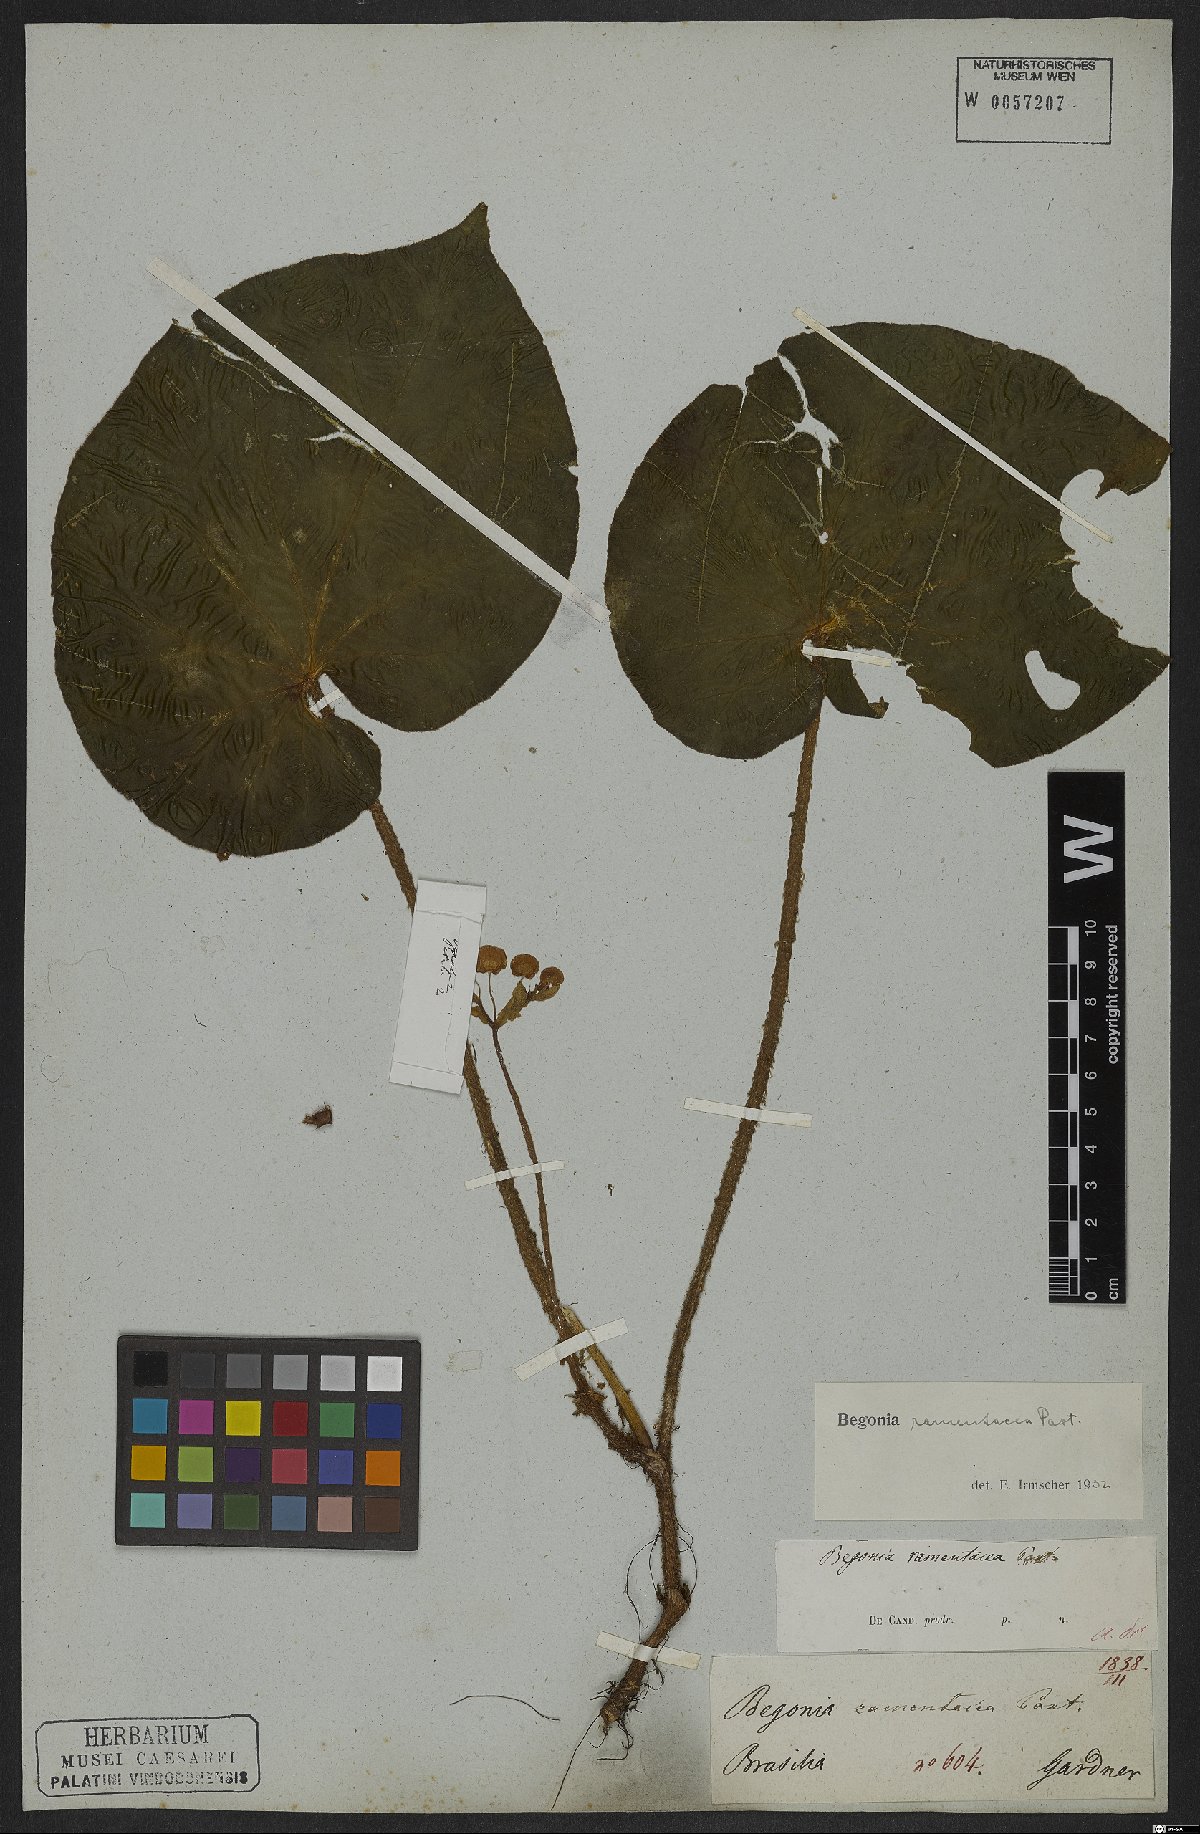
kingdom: Plantae
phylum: Tracheophyta
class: Magnoliopsida
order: Cucurbitales
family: Begoniaceae
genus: Begonia
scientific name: Begonia ramentacea
